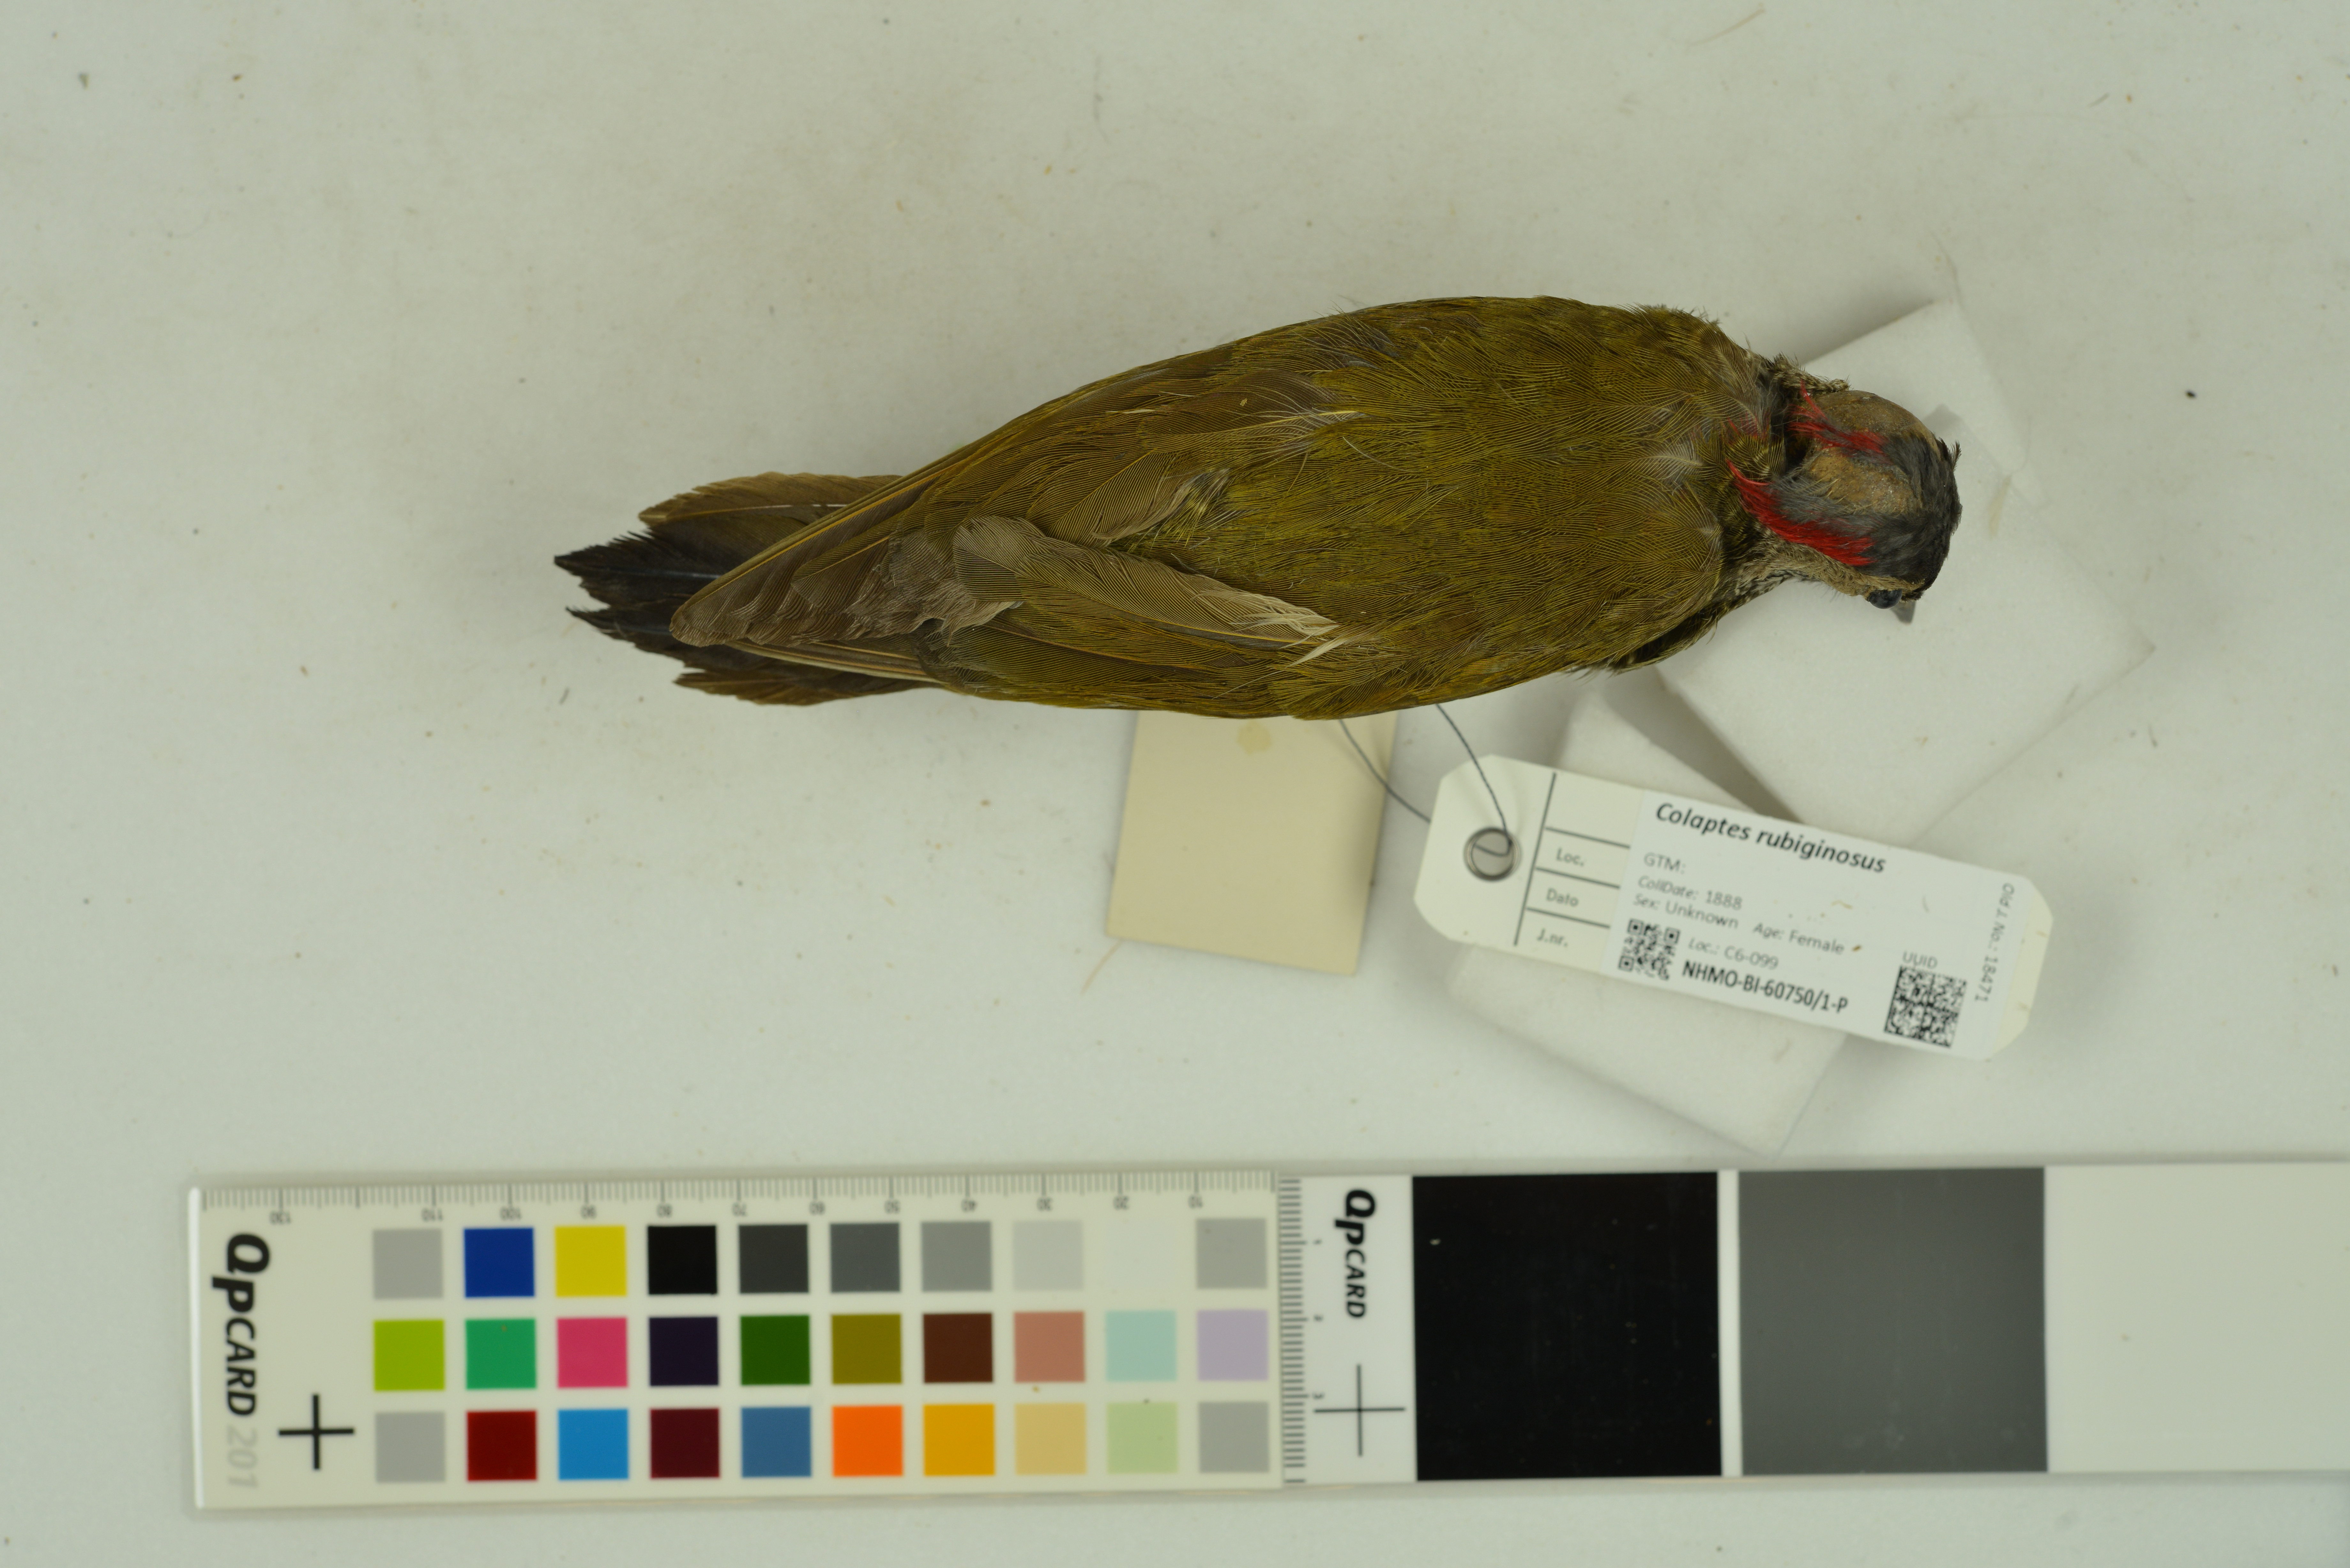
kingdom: Animalia
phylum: Chordata
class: Aves
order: Piciformes
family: Picidae
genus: Colaptes
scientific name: Colaptes rubiginosus
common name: Golden-olive woodpecker
